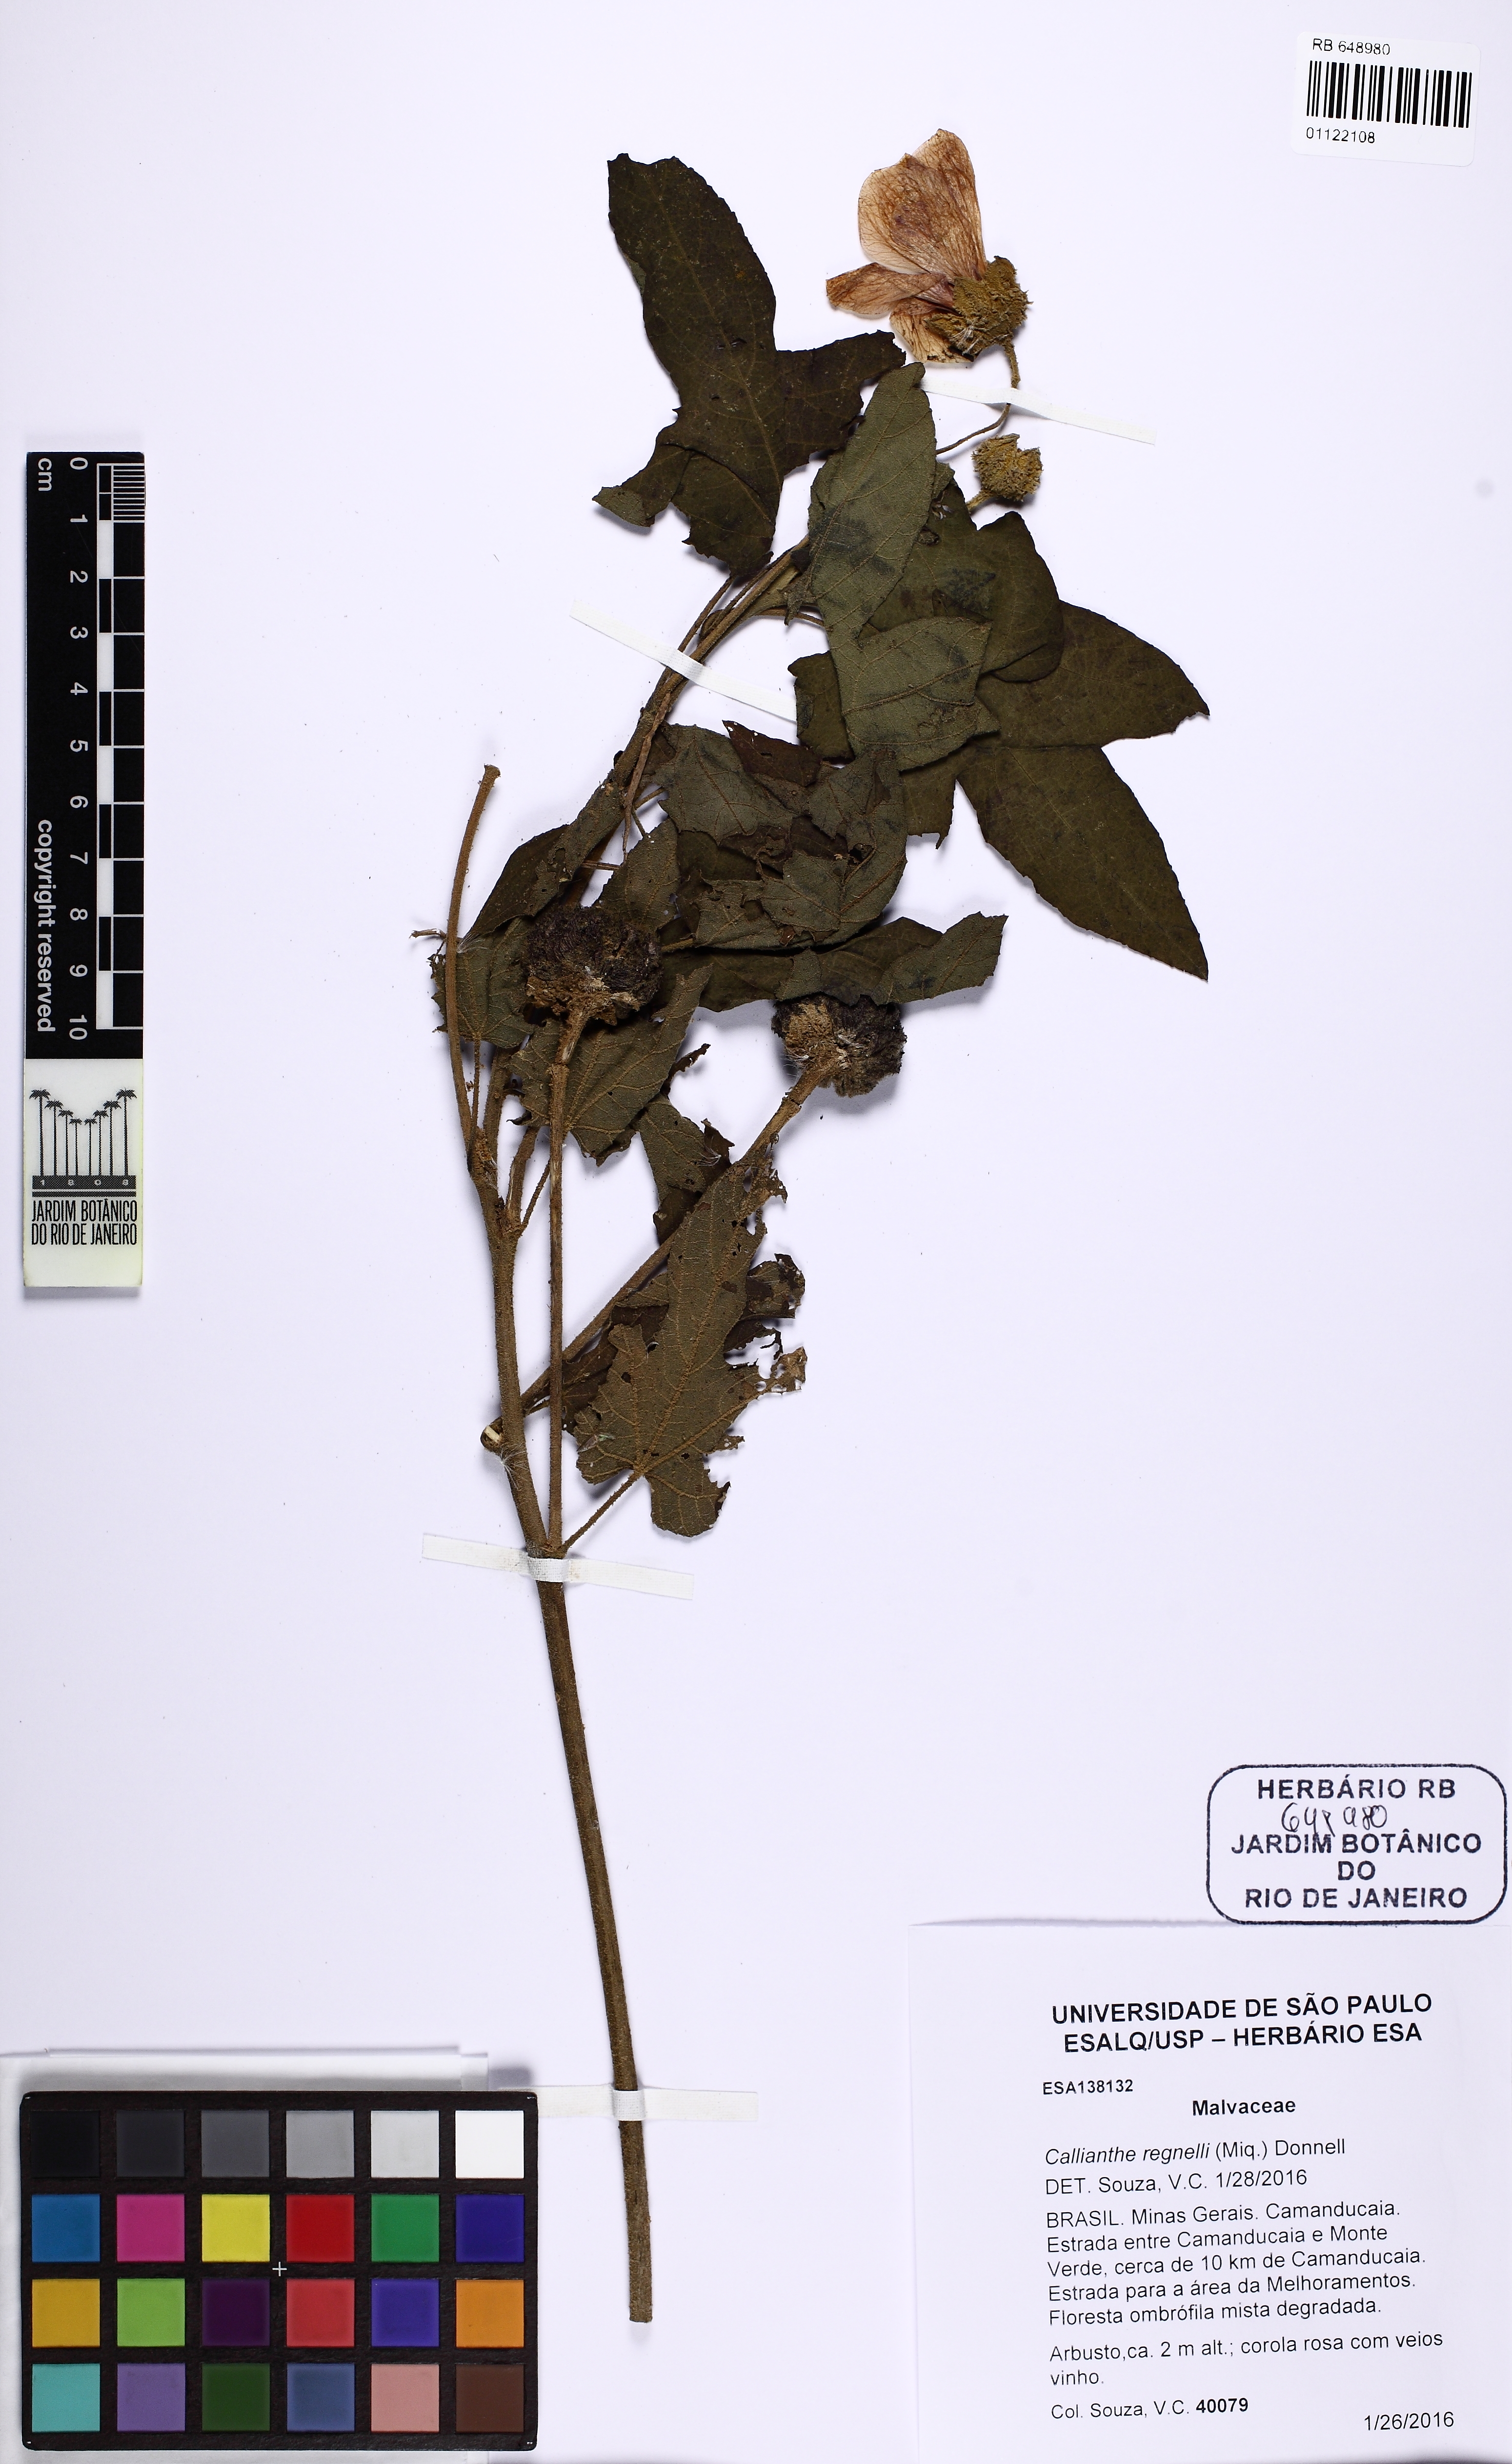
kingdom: Plantae
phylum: Tracheophyta
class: Magnoliopsida
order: Malvales
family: Malvaceae
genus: Callianthe
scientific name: Callianthe regnellii
